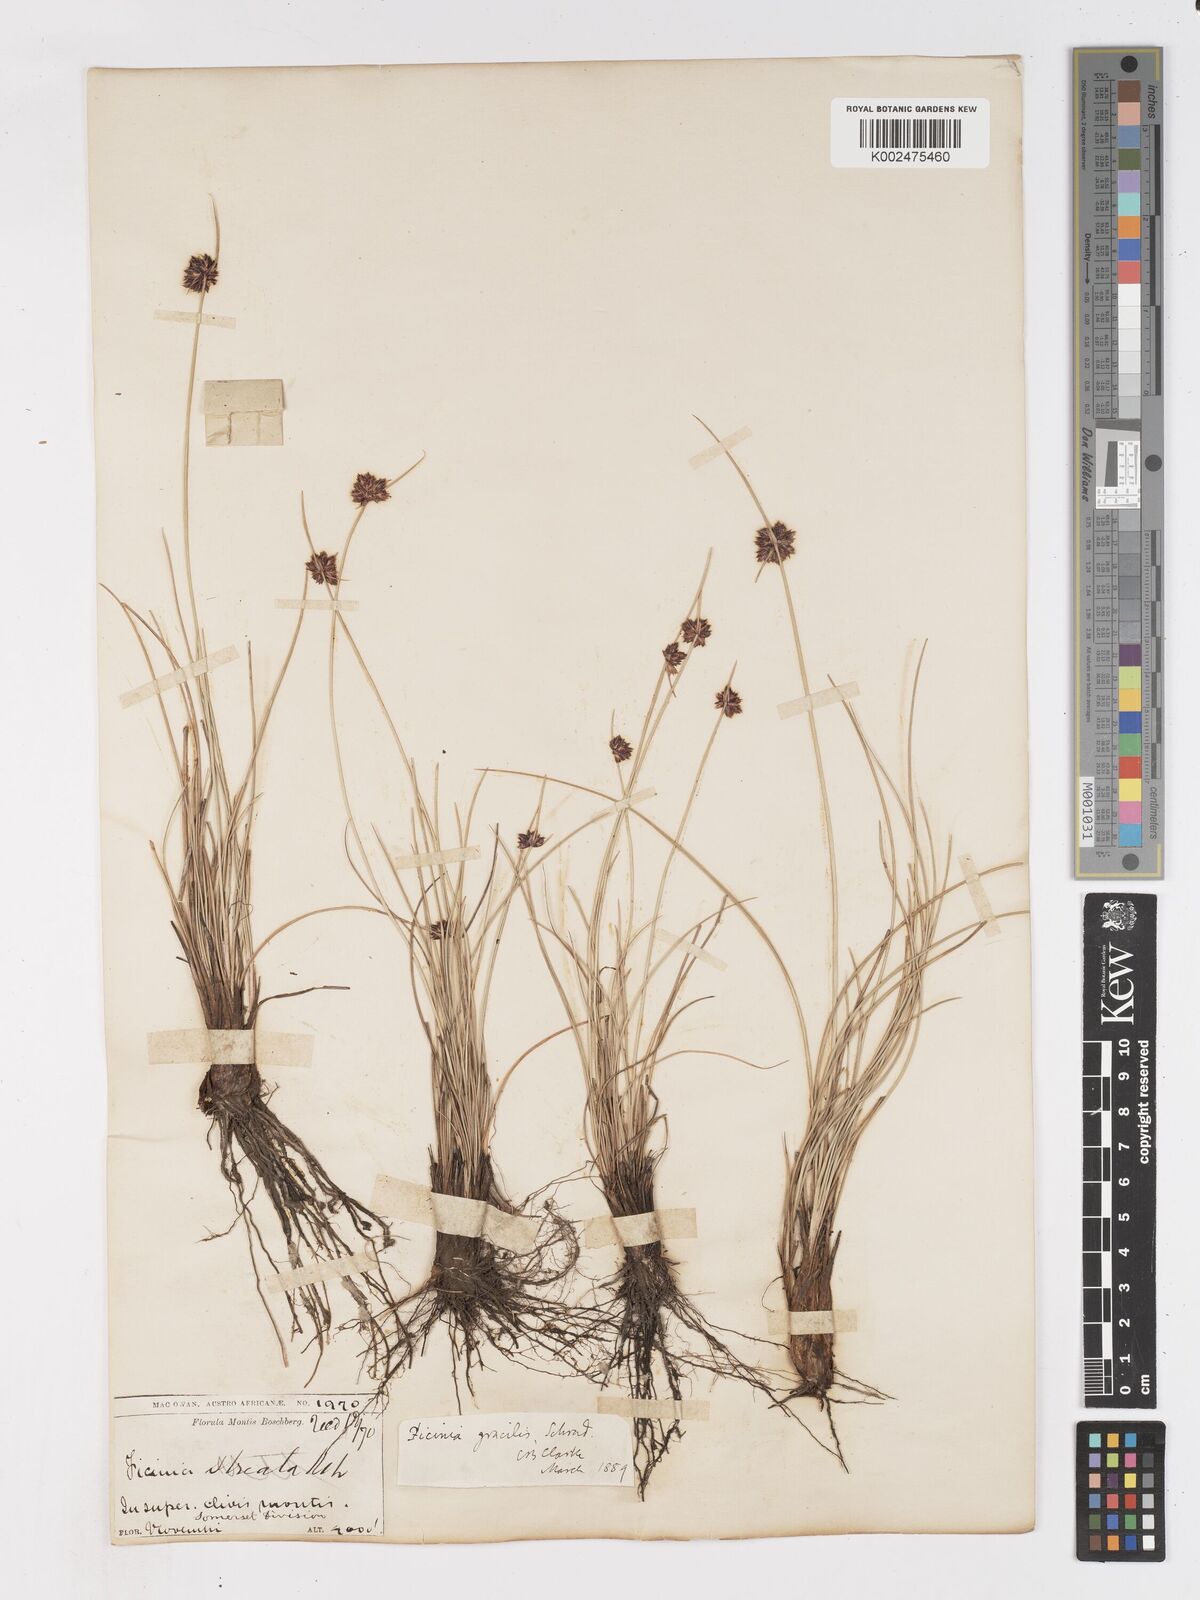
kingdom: Plantae
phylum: Tracheophyta
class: Liliopsida
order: Poales
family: Cyperaceae
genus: Ficinia
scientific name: Ficinia cinnamomea
